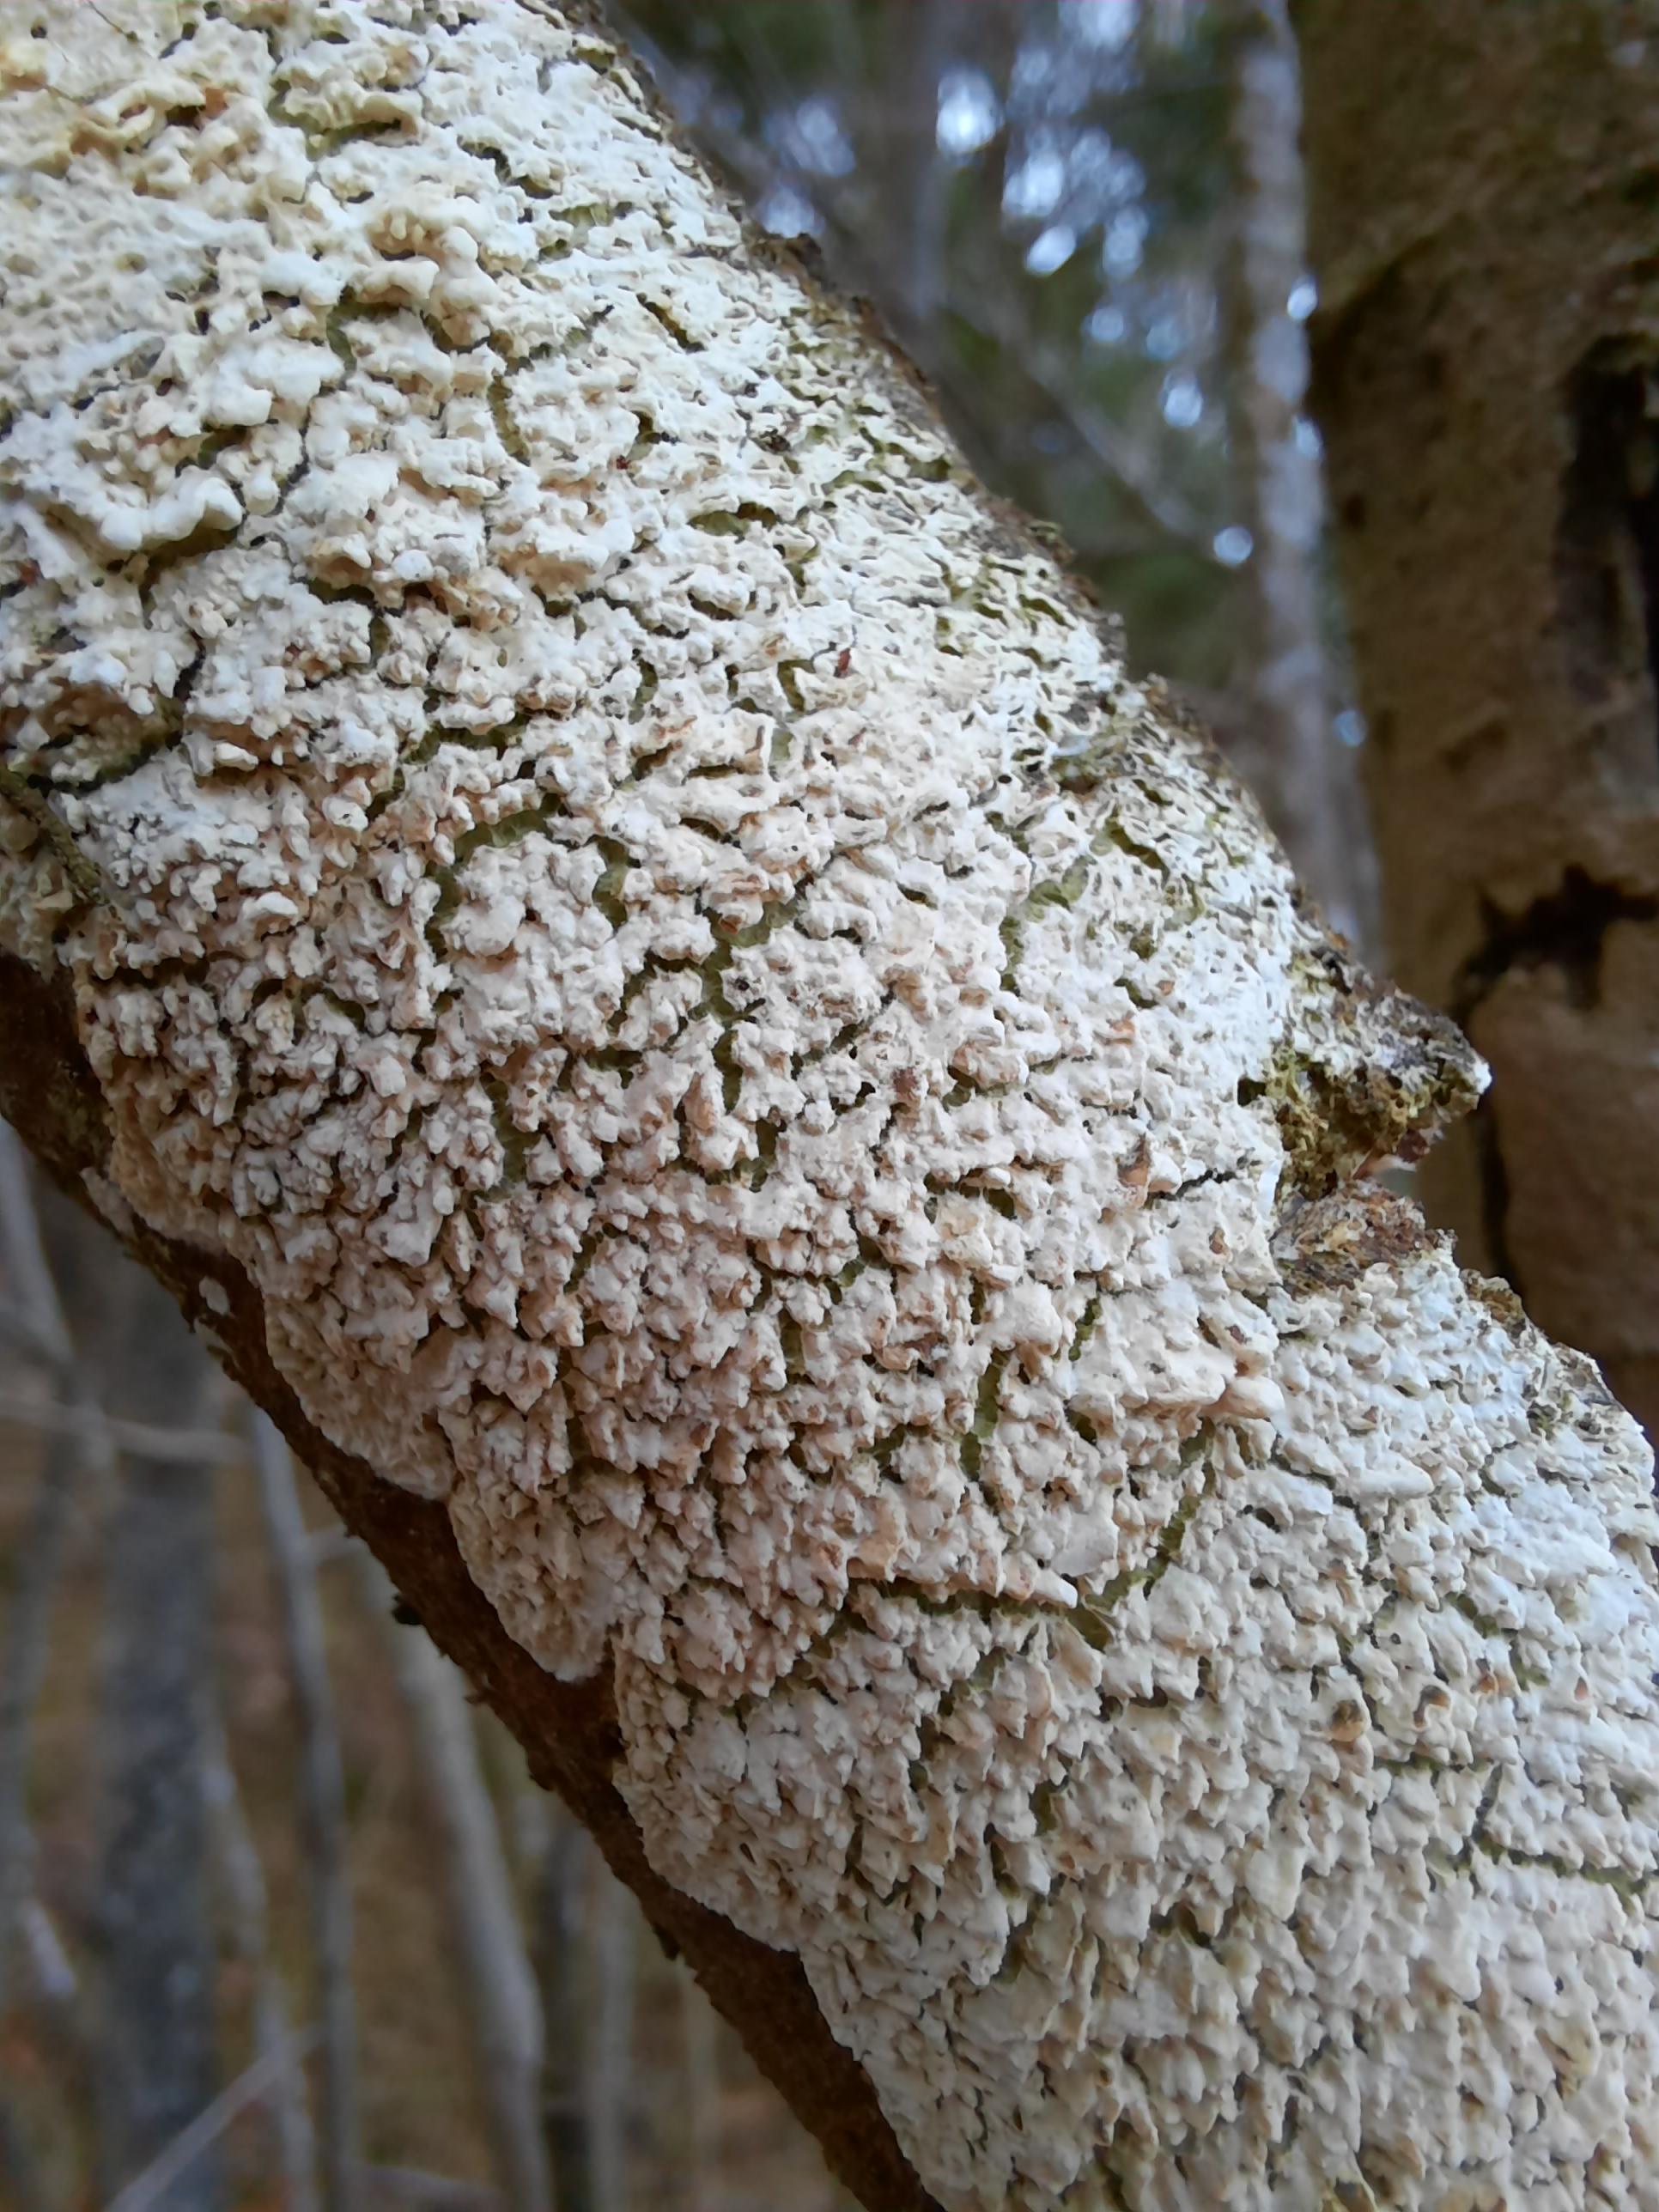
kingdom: Fungi
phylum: Basidiomycota
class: Agaricomycetes
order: Hymenochaetales
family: Schizoporaceae
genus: Xylodon
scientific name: Xylodon radula
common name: grovtandet kalkskind
